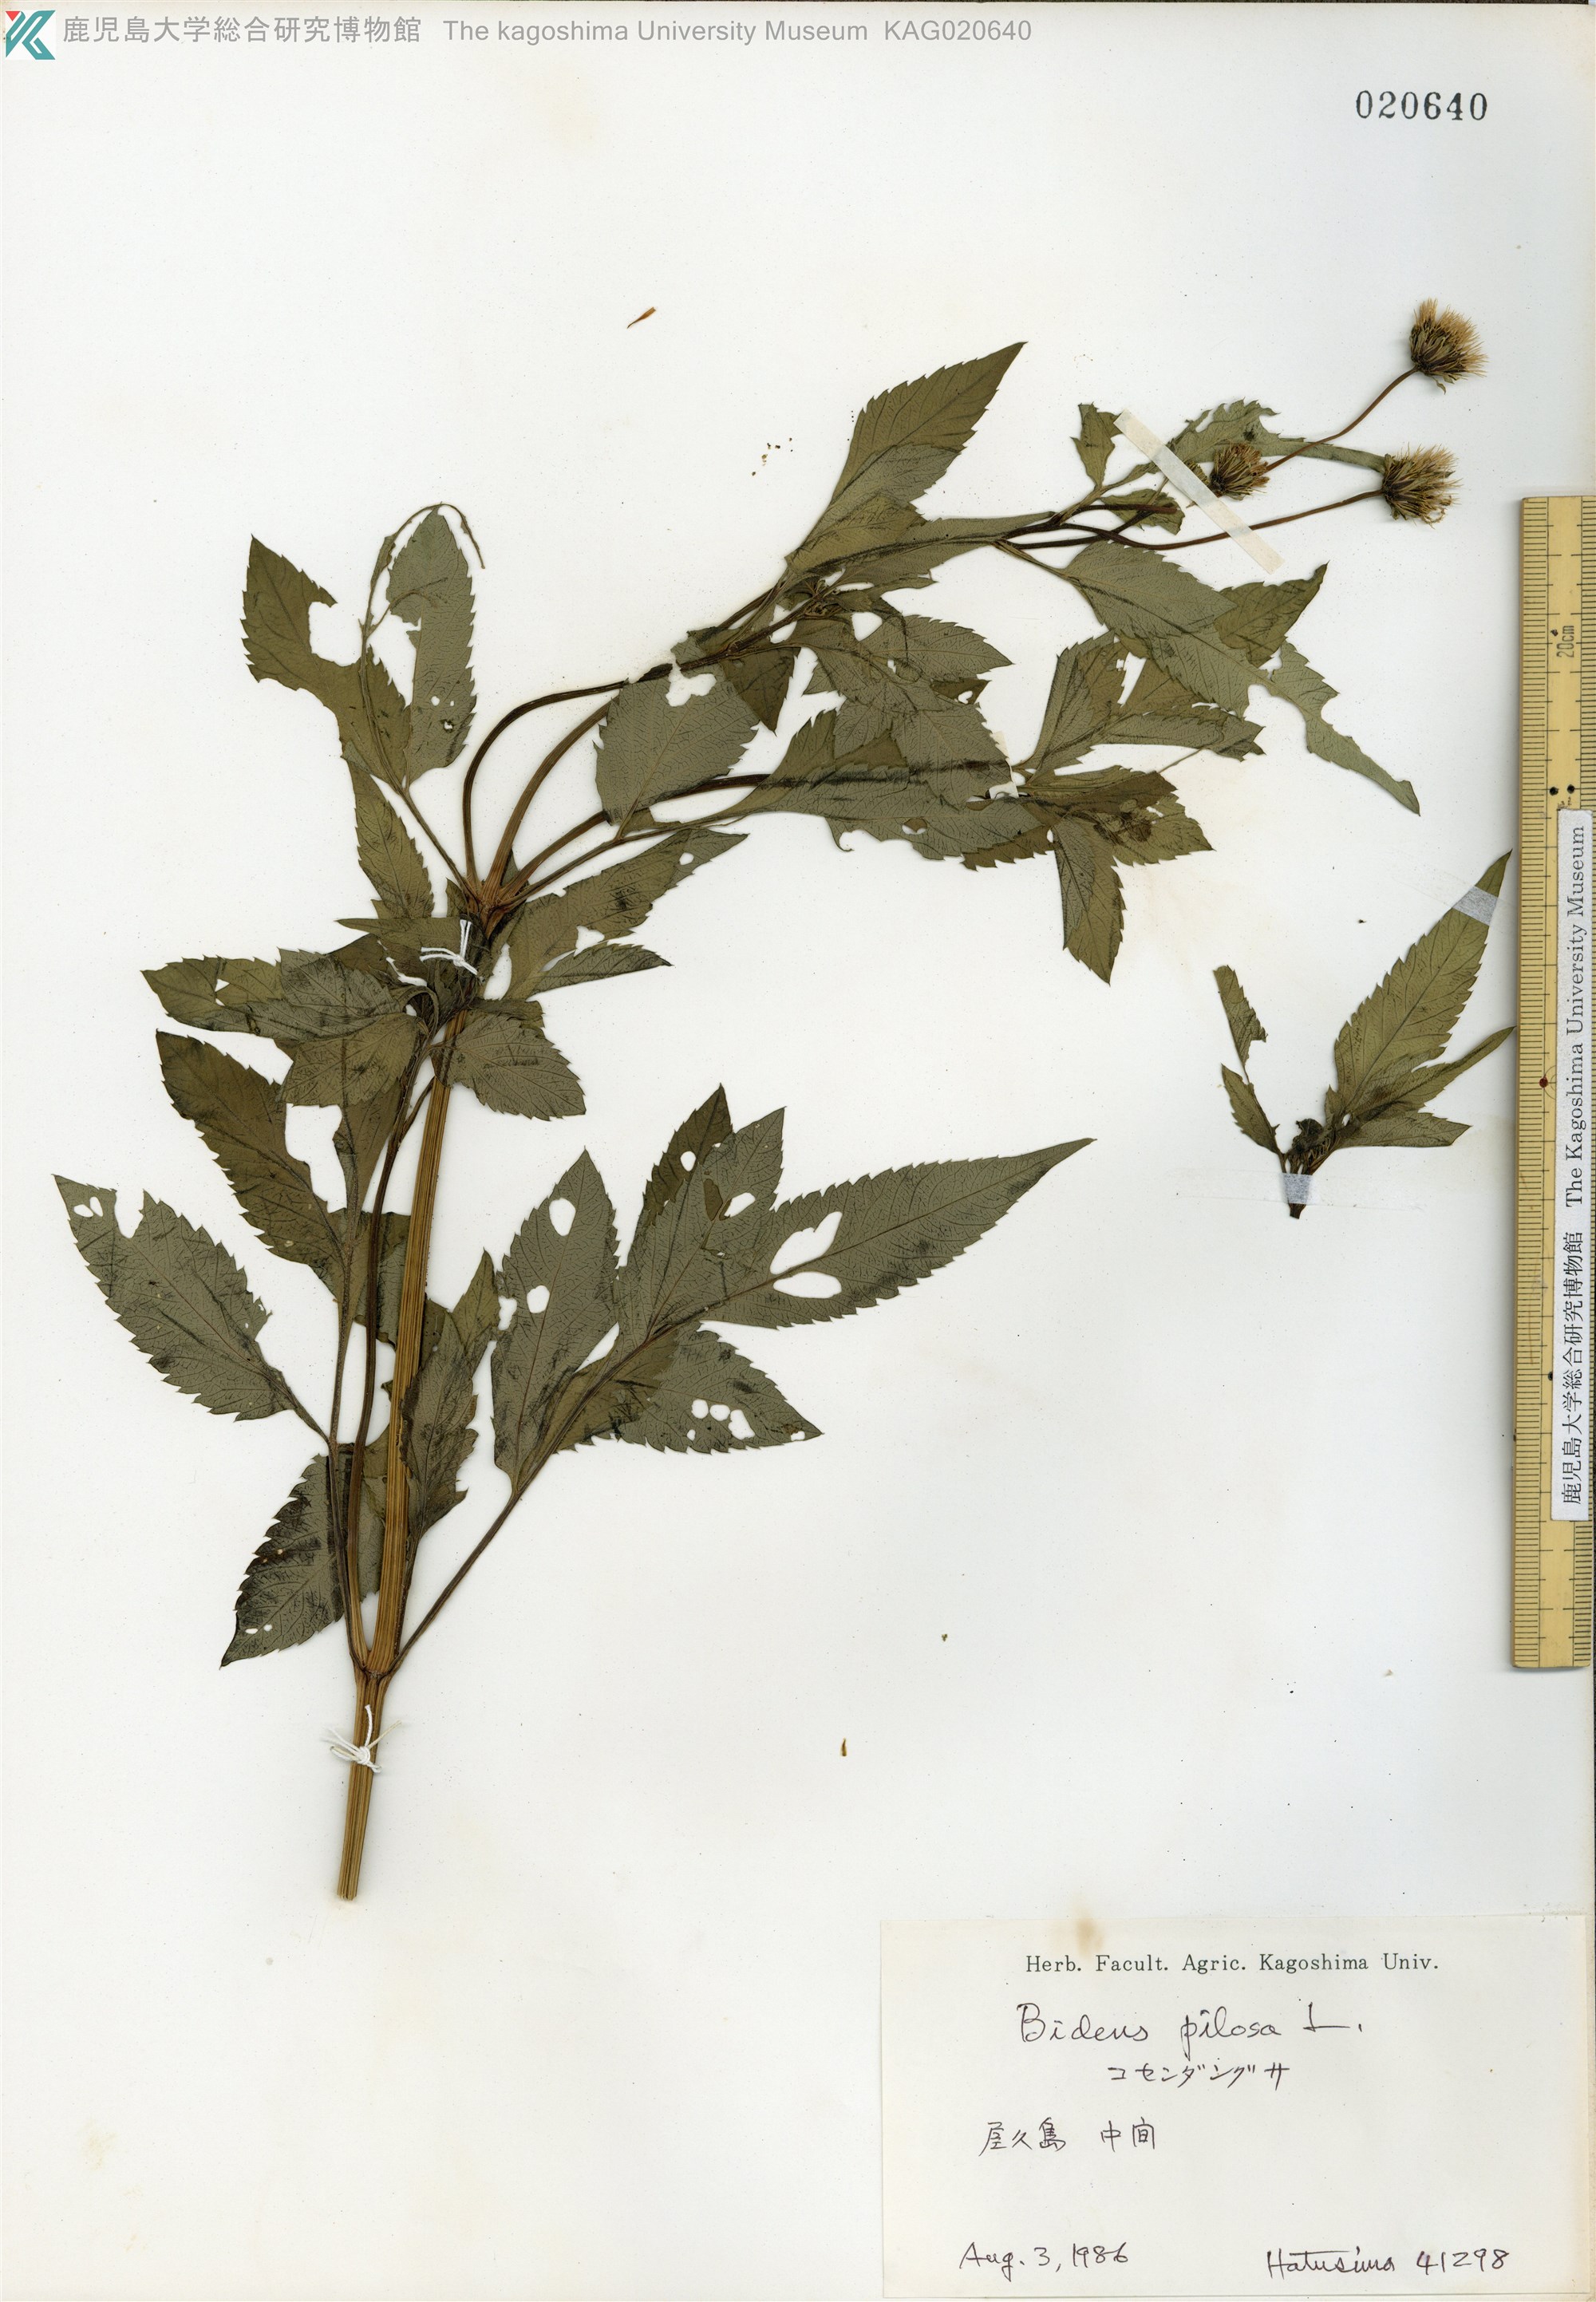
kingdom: Plantae
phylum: Tracheophyta
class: Magnoliopsida
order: Asterales
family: Asteraceae
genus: Bidens
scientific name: Bidens pilosa
